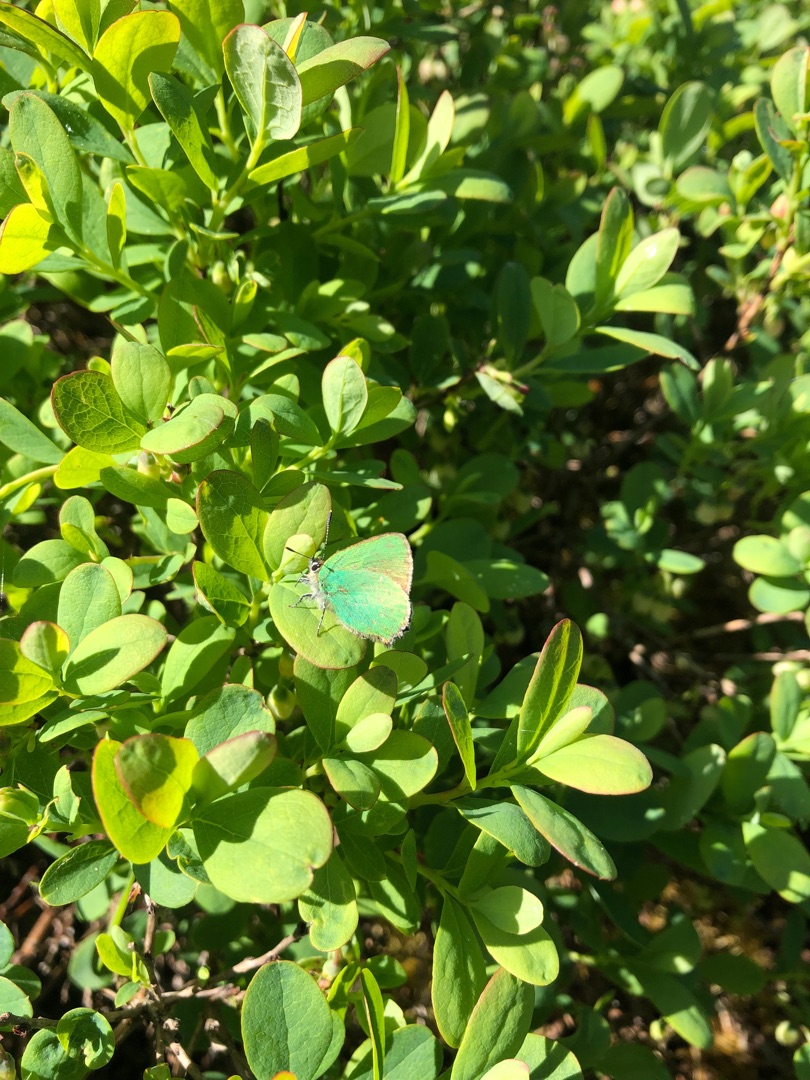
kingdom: Animalia
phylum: Arthropoda
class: Insecta
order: Lepidoptera
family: Lycaenidae
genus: Callophrys
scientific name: Callophrys rubi
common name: Grøn busksommerfugl
